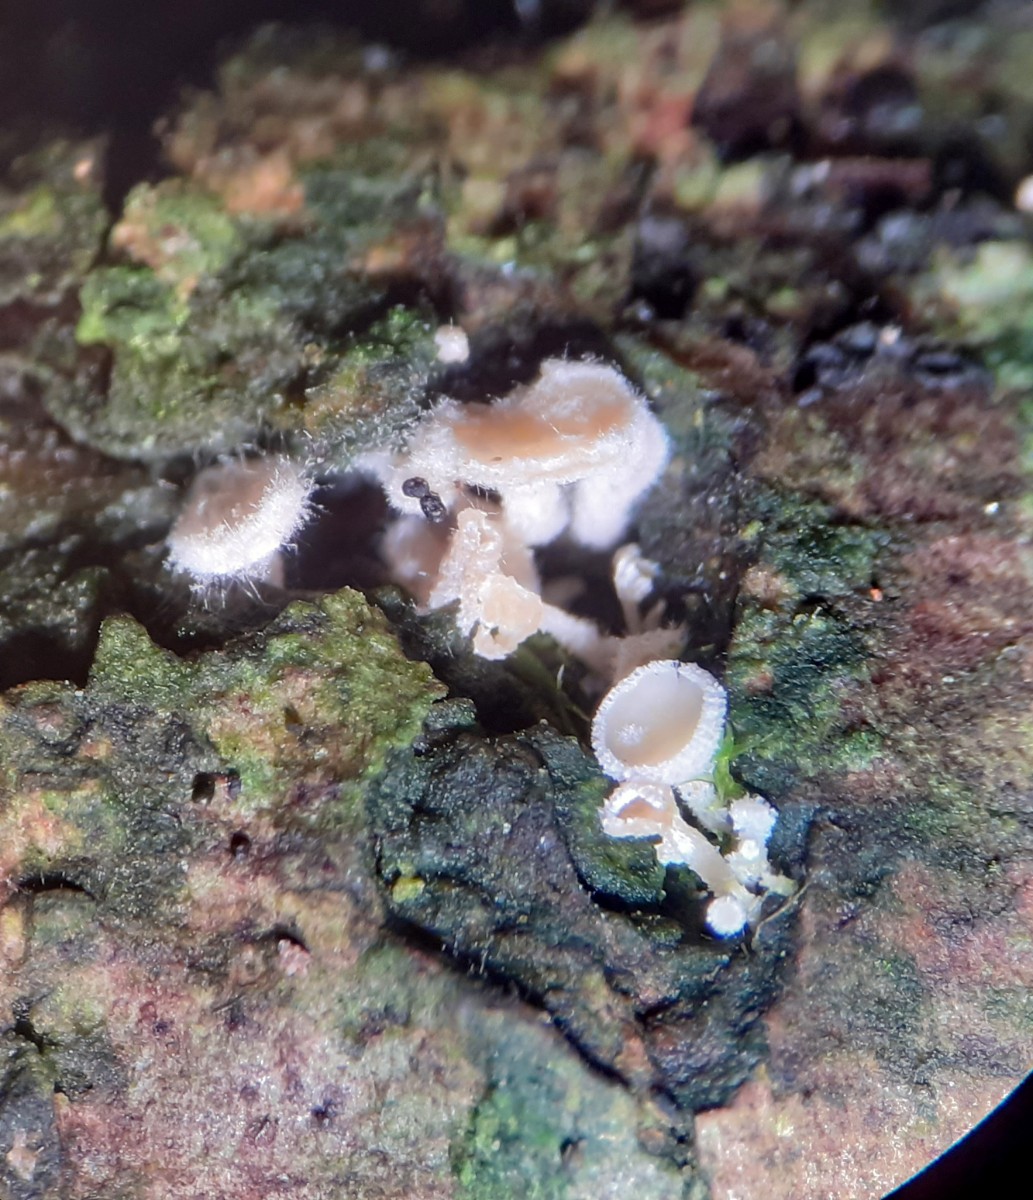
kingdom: Fungi
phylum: Ascomycota
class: Leotiomycetes
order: Helotiales
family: Hyaloscyphaceae
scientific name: Hyaloscyphaceae
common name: frynseskivefamilien
